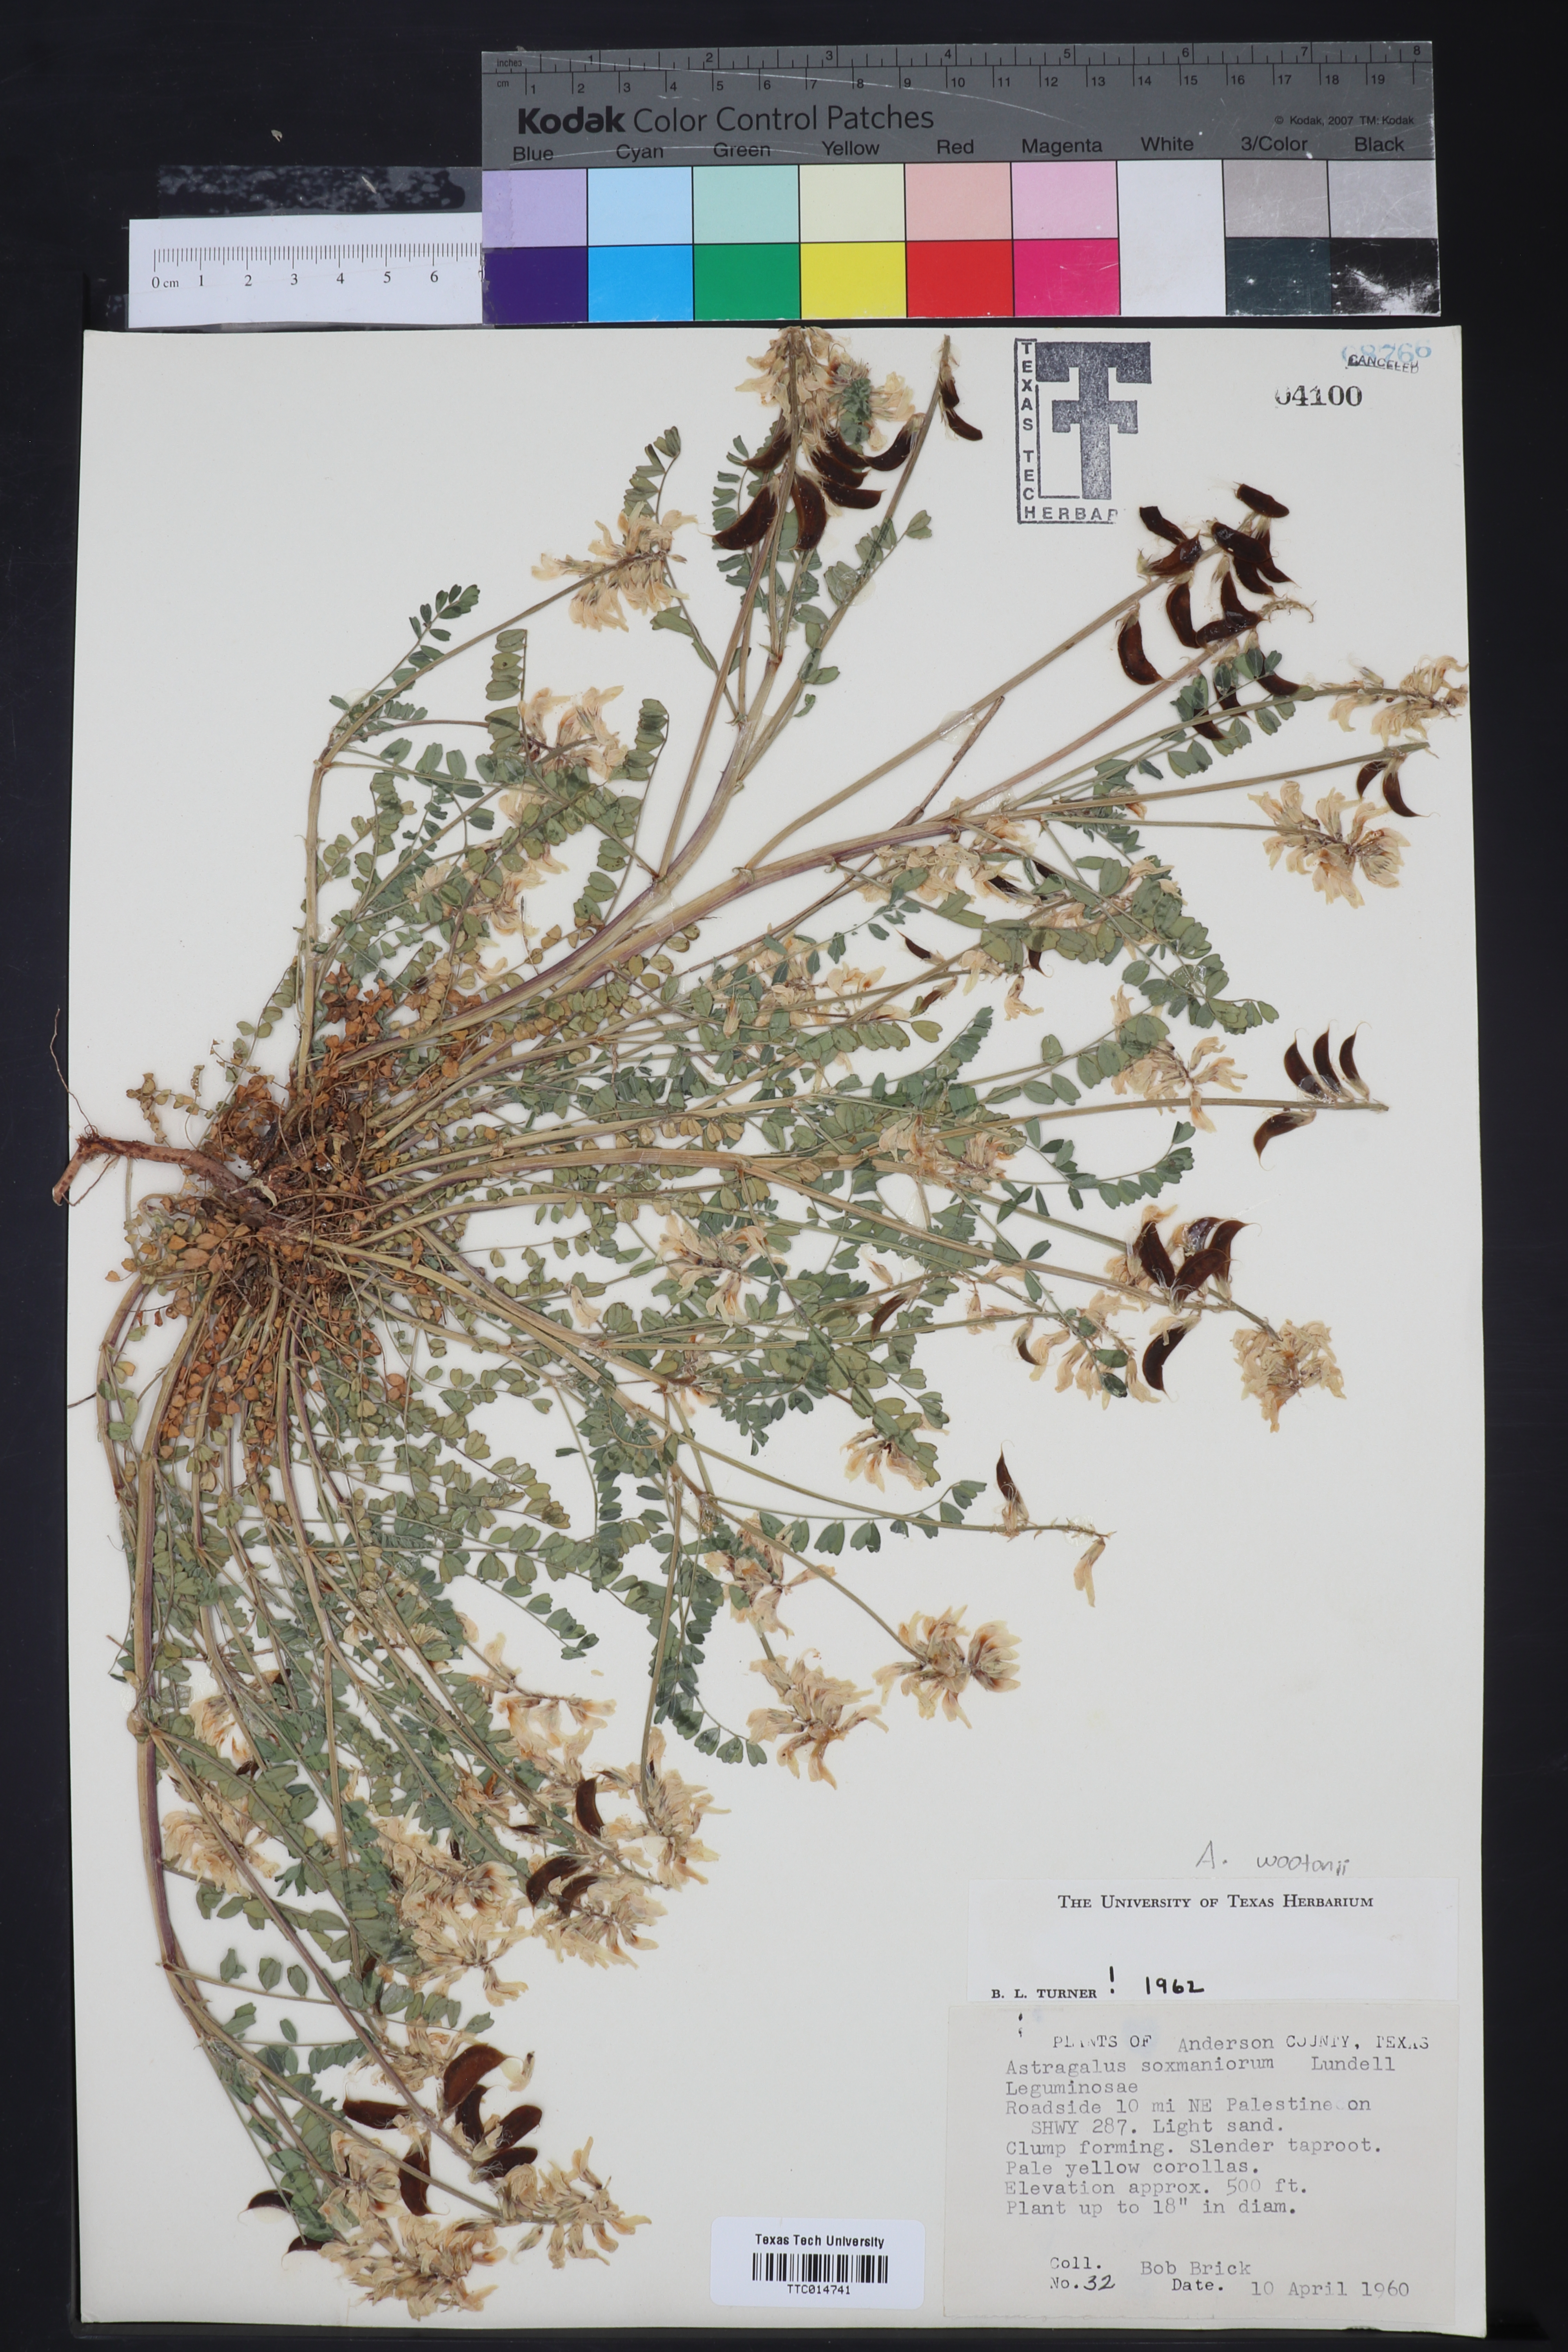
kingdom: Plantae
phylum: Tracheophyta
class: Magnoliopsida
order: Fabales
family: Fabaceae
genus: Astragalus
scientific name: Astragalus soxmaniorum
